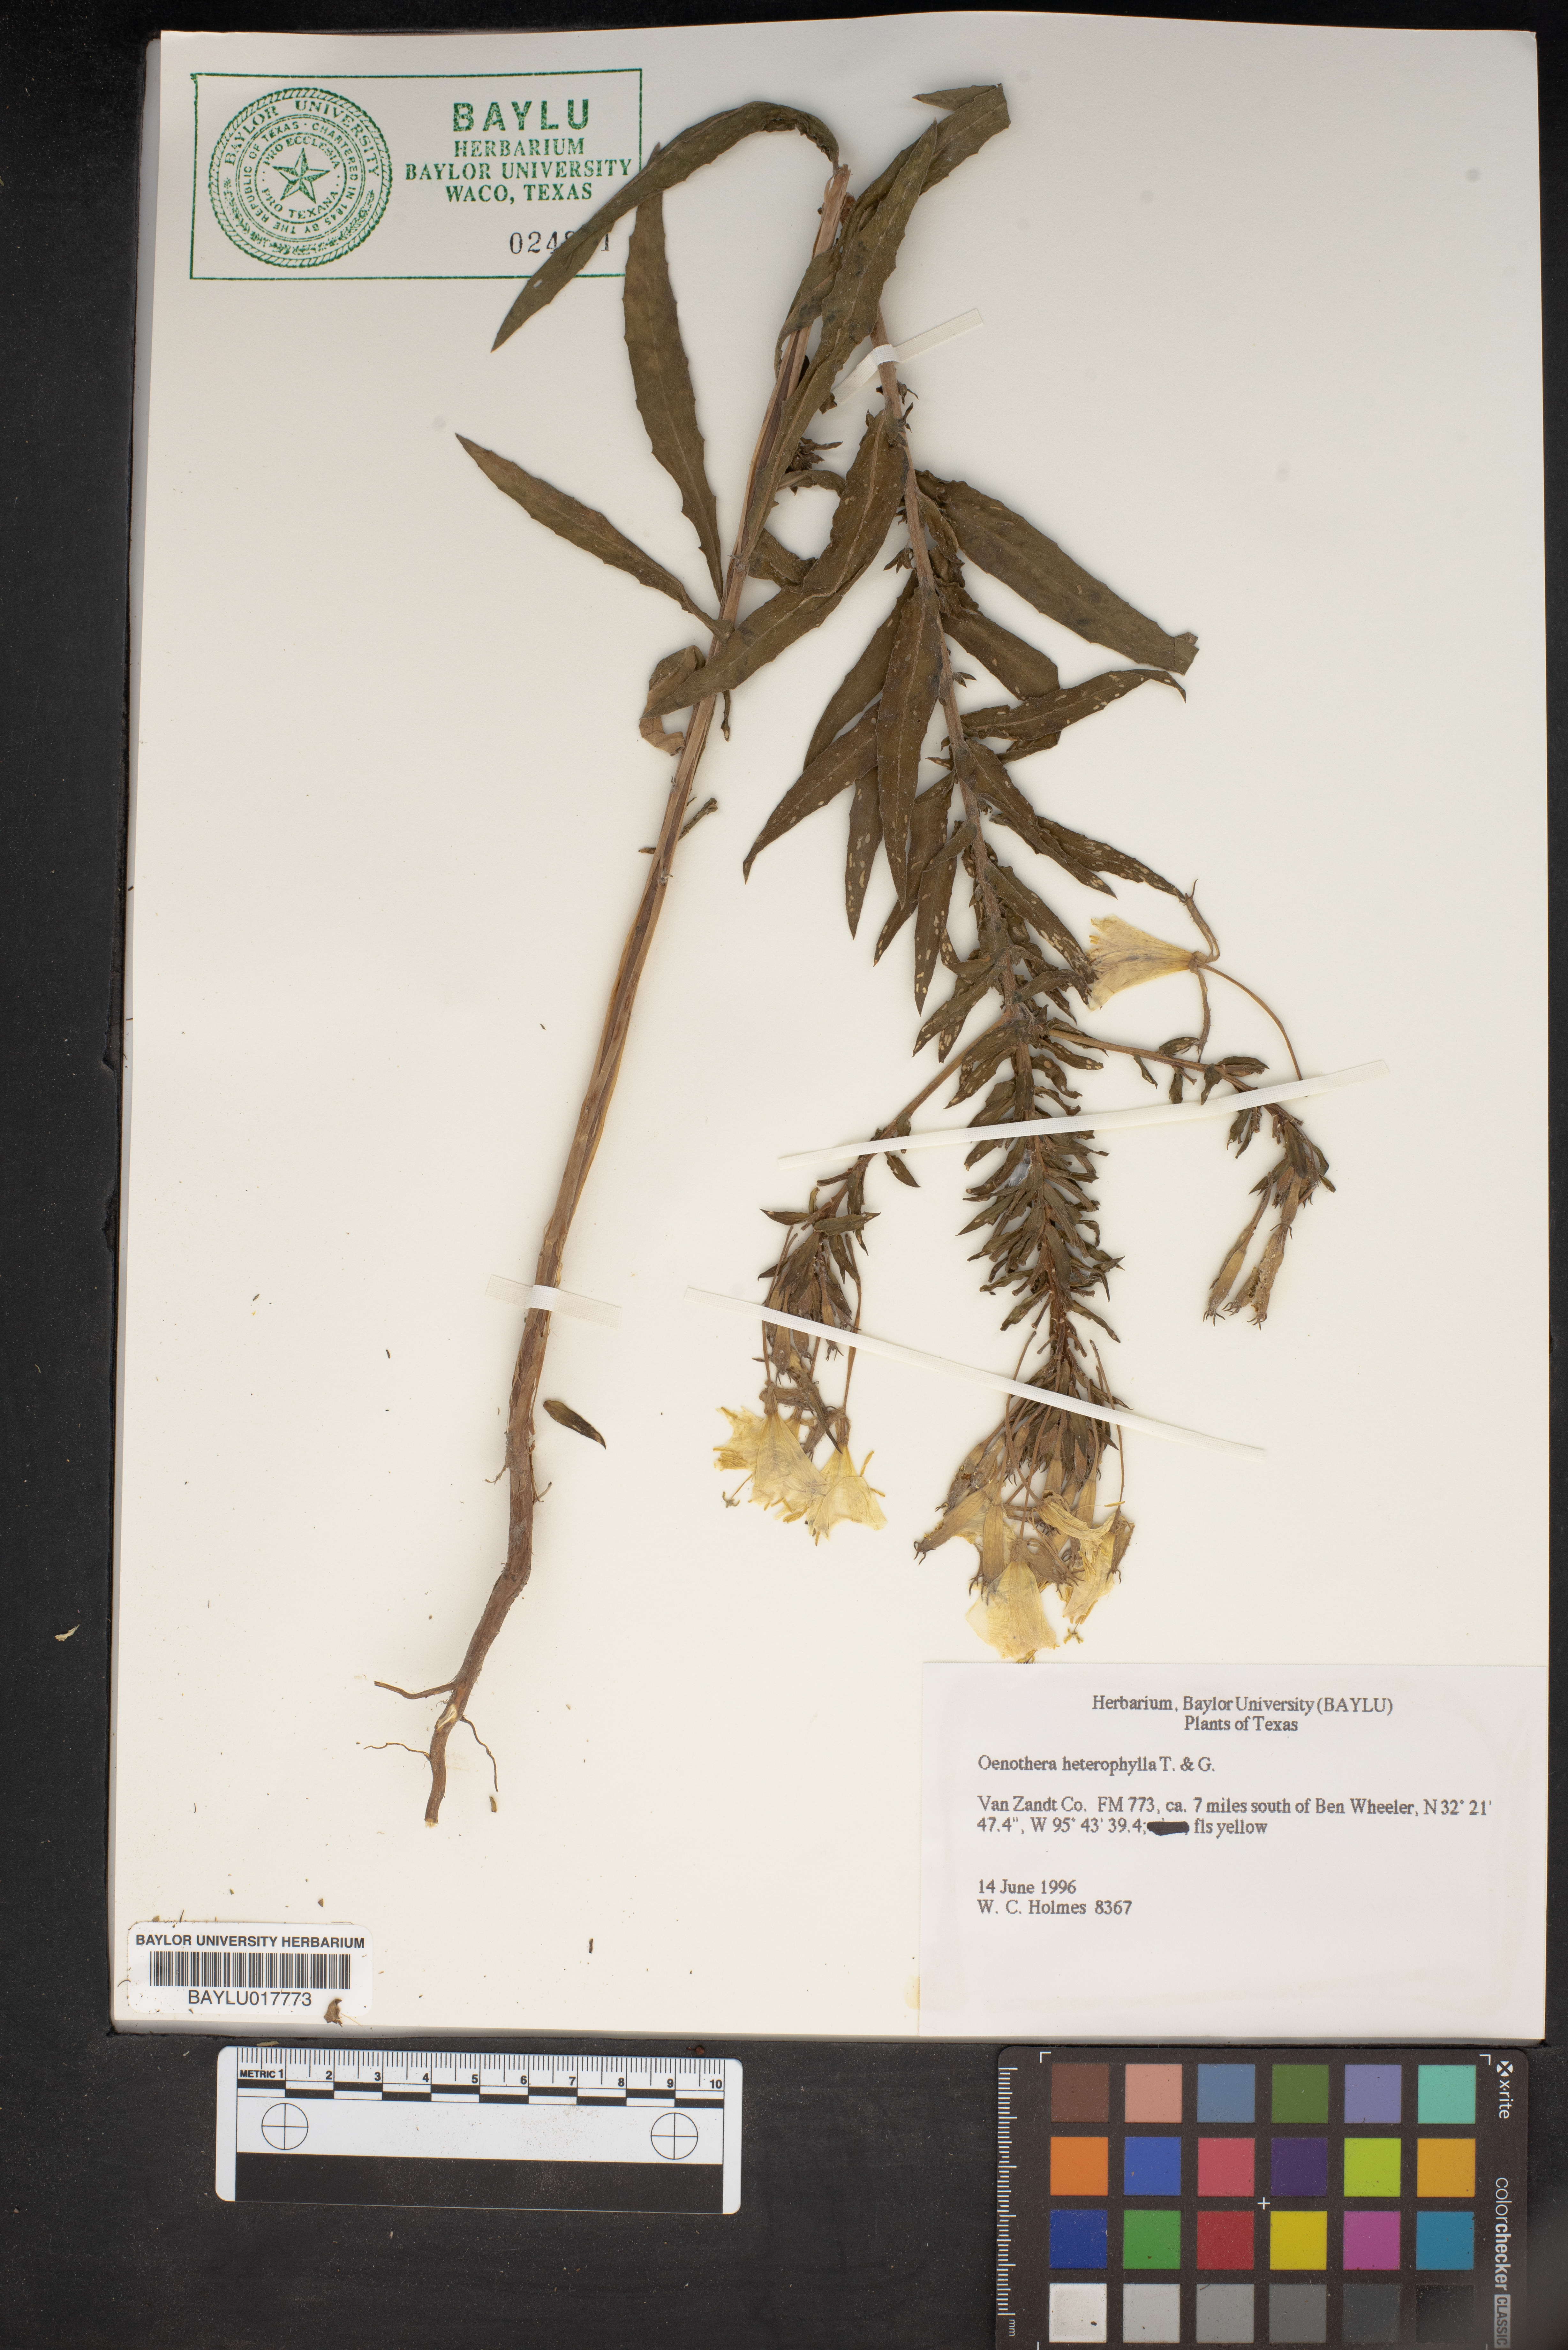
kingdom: Plantae
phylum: Tracheophyta
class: Magnoliopsida
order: Myrtales
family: Onagraceae
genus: Camissonia
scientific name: Camissonia dentata
